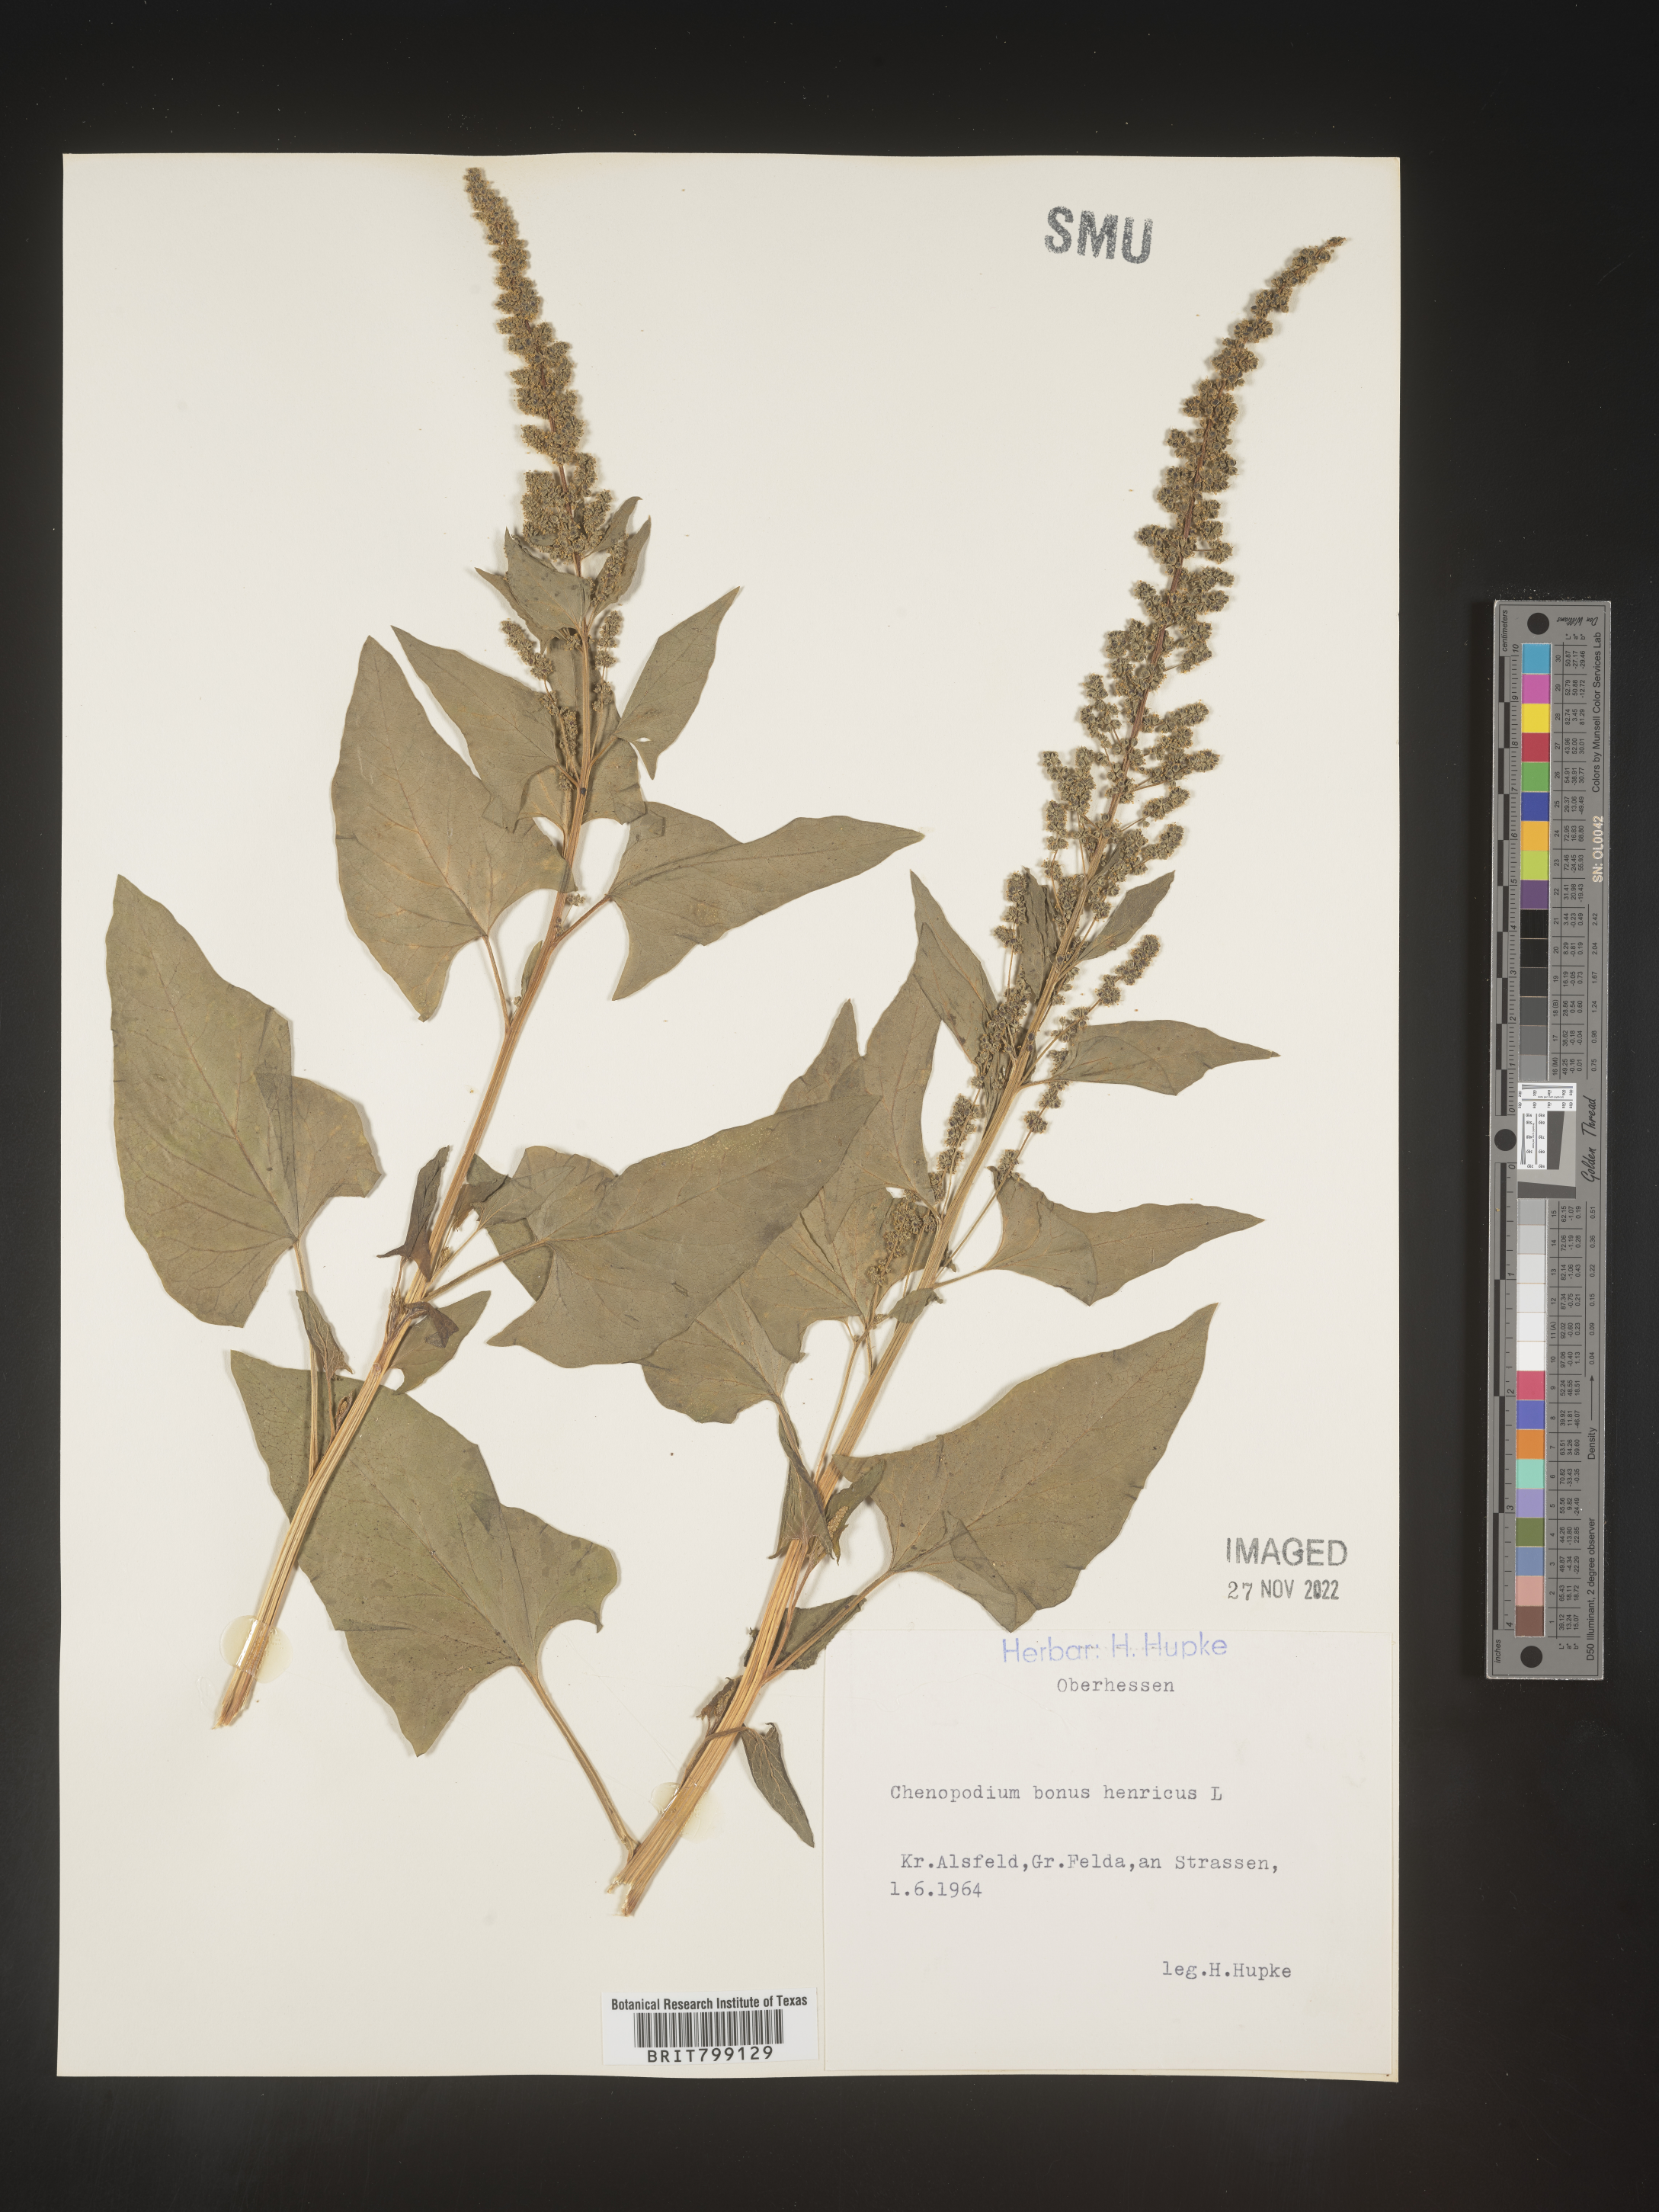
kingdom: Plantae
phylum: Tracheophyta
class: Magnoliopsida
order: Caryophyllales
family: Amaranthaceae
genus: Blitum
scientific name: Blitum bonus-henricus
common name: Good king henry
